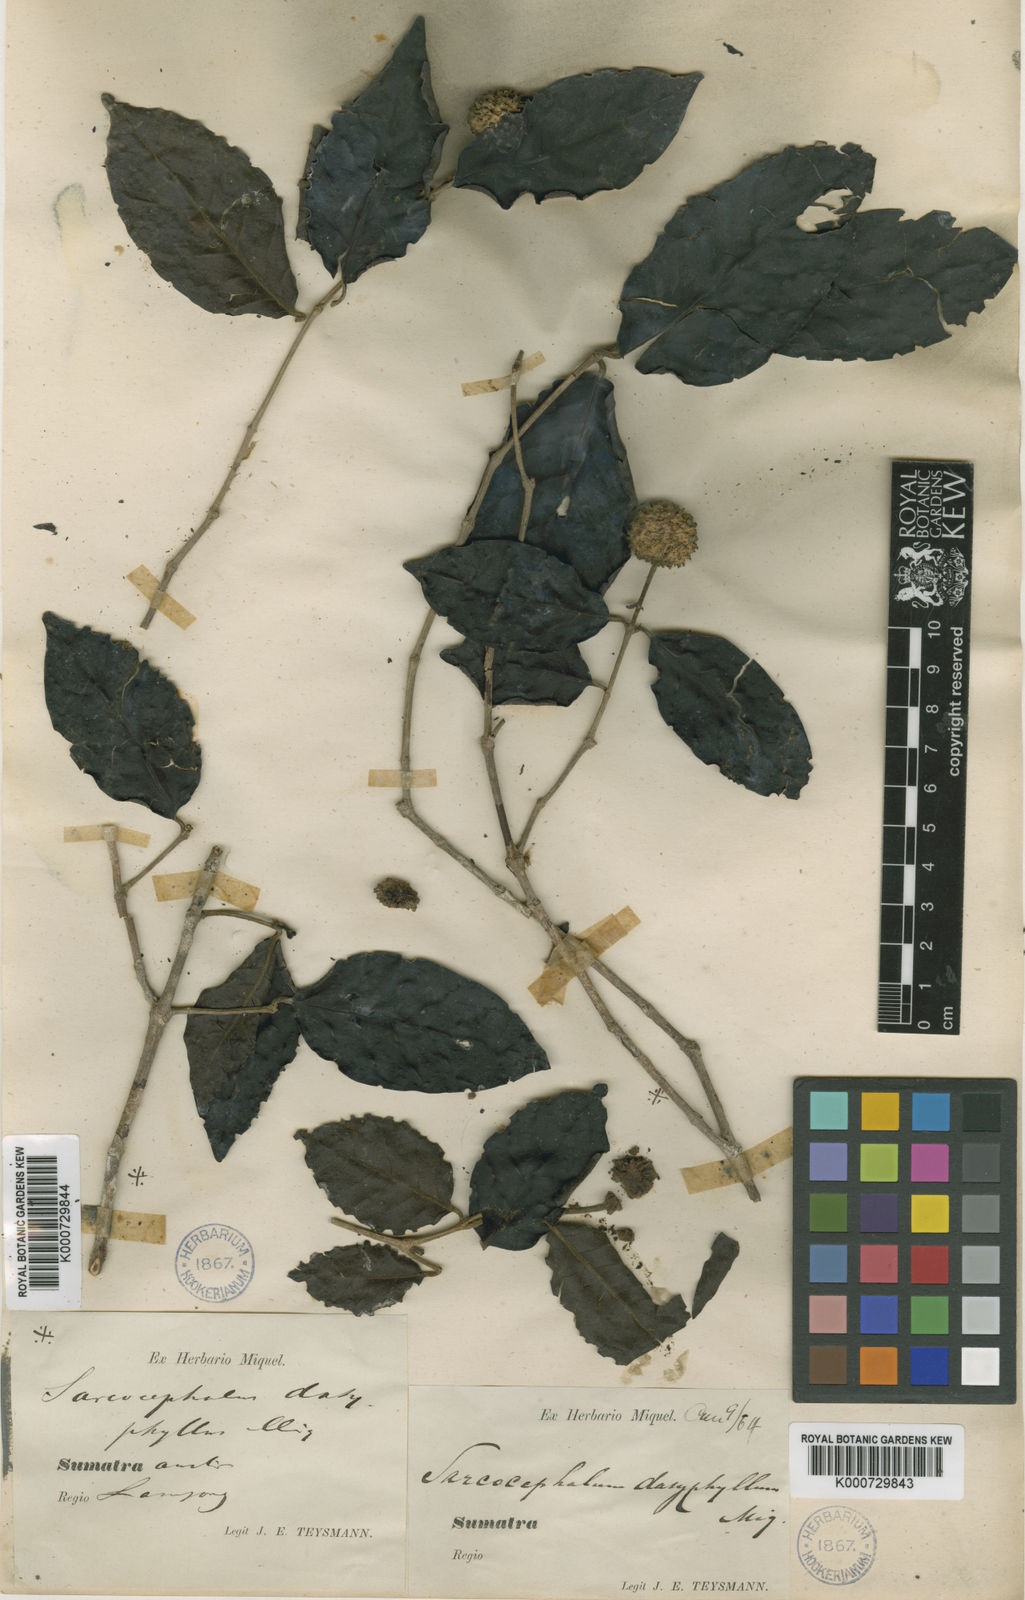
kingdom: Plantae
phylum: Tracheophyta
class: Magnoliopsida
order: Gentianales
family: Rubiaceae
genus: Nauclea
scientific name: Nauclea officinalis
